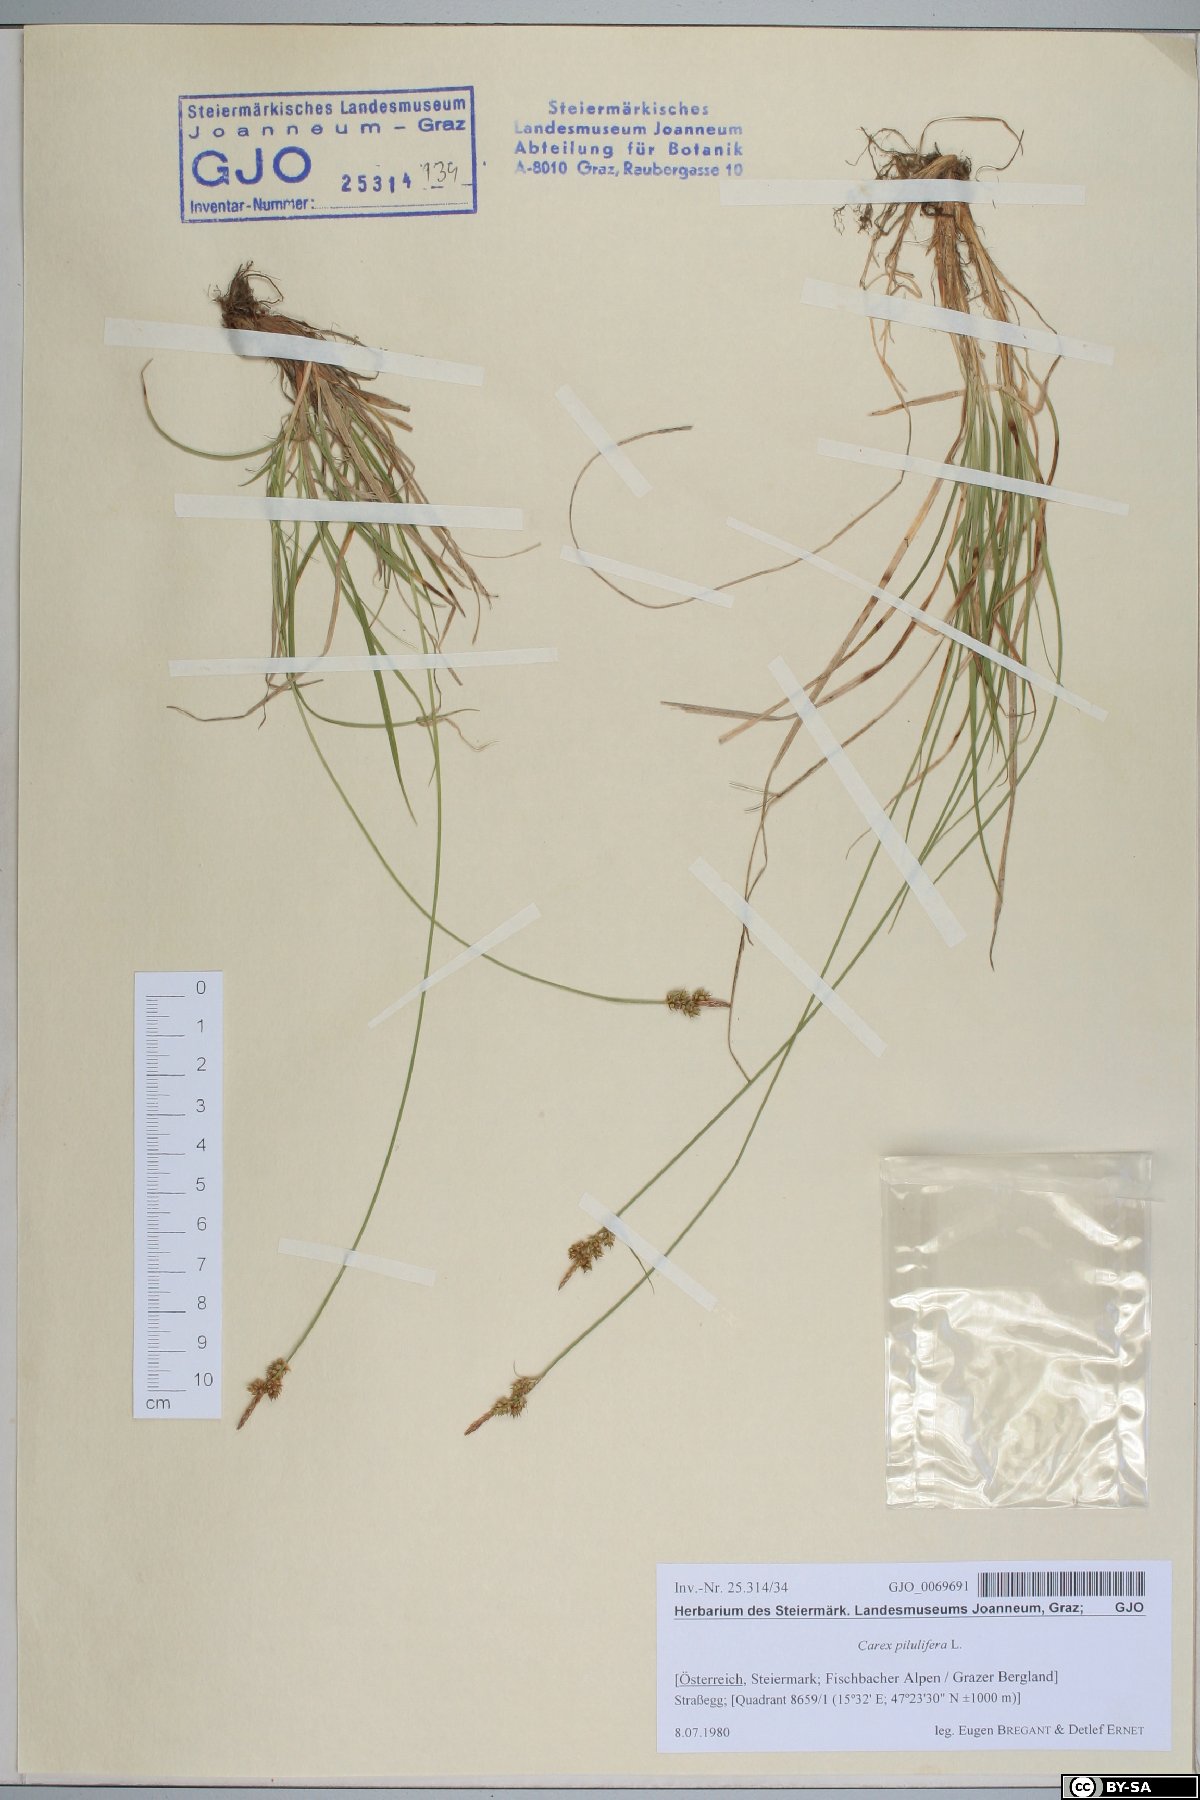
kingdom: Plantae
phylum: Tracheophyta
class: Liliopsida
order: Poales
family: Cyperaceae
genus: Carex
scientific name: Carex pilulifera
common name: Pill sedge
